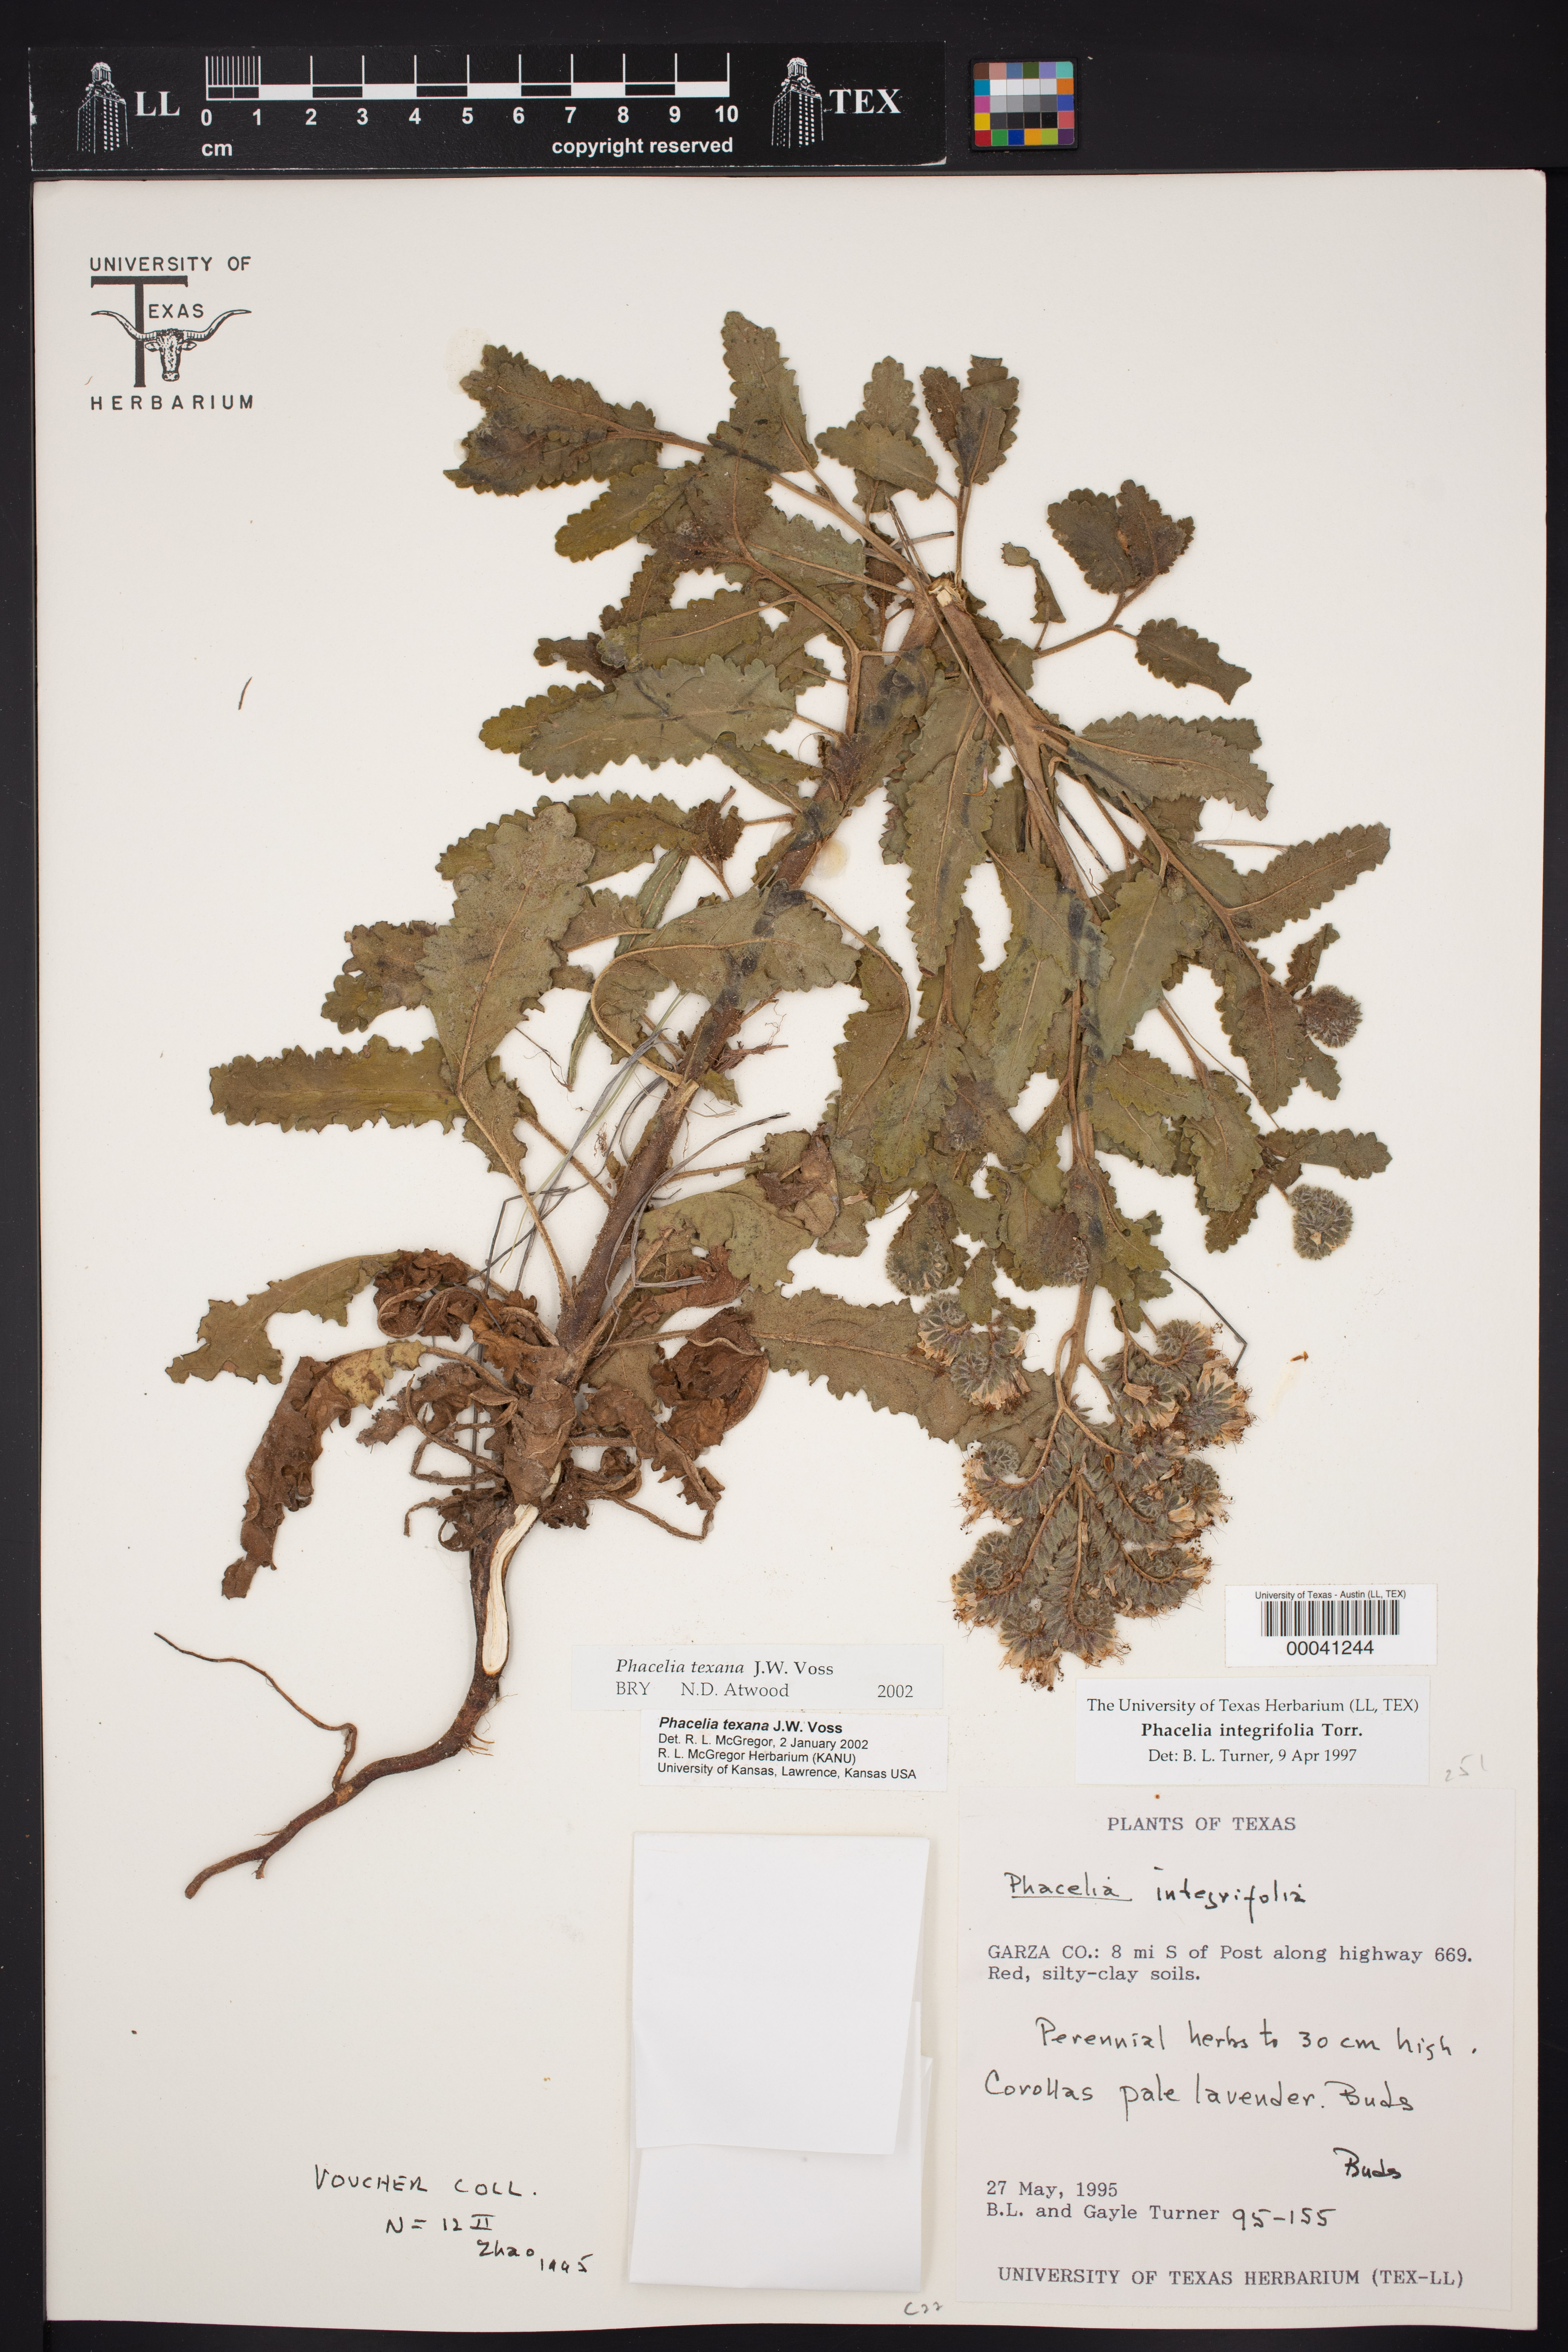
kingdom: Plantae
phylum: Tracheophyta
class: Magnoliopsida
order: Boraginales
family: Hydrophyllaceae
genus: Phacelia
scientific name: Phacelia integrifolia
